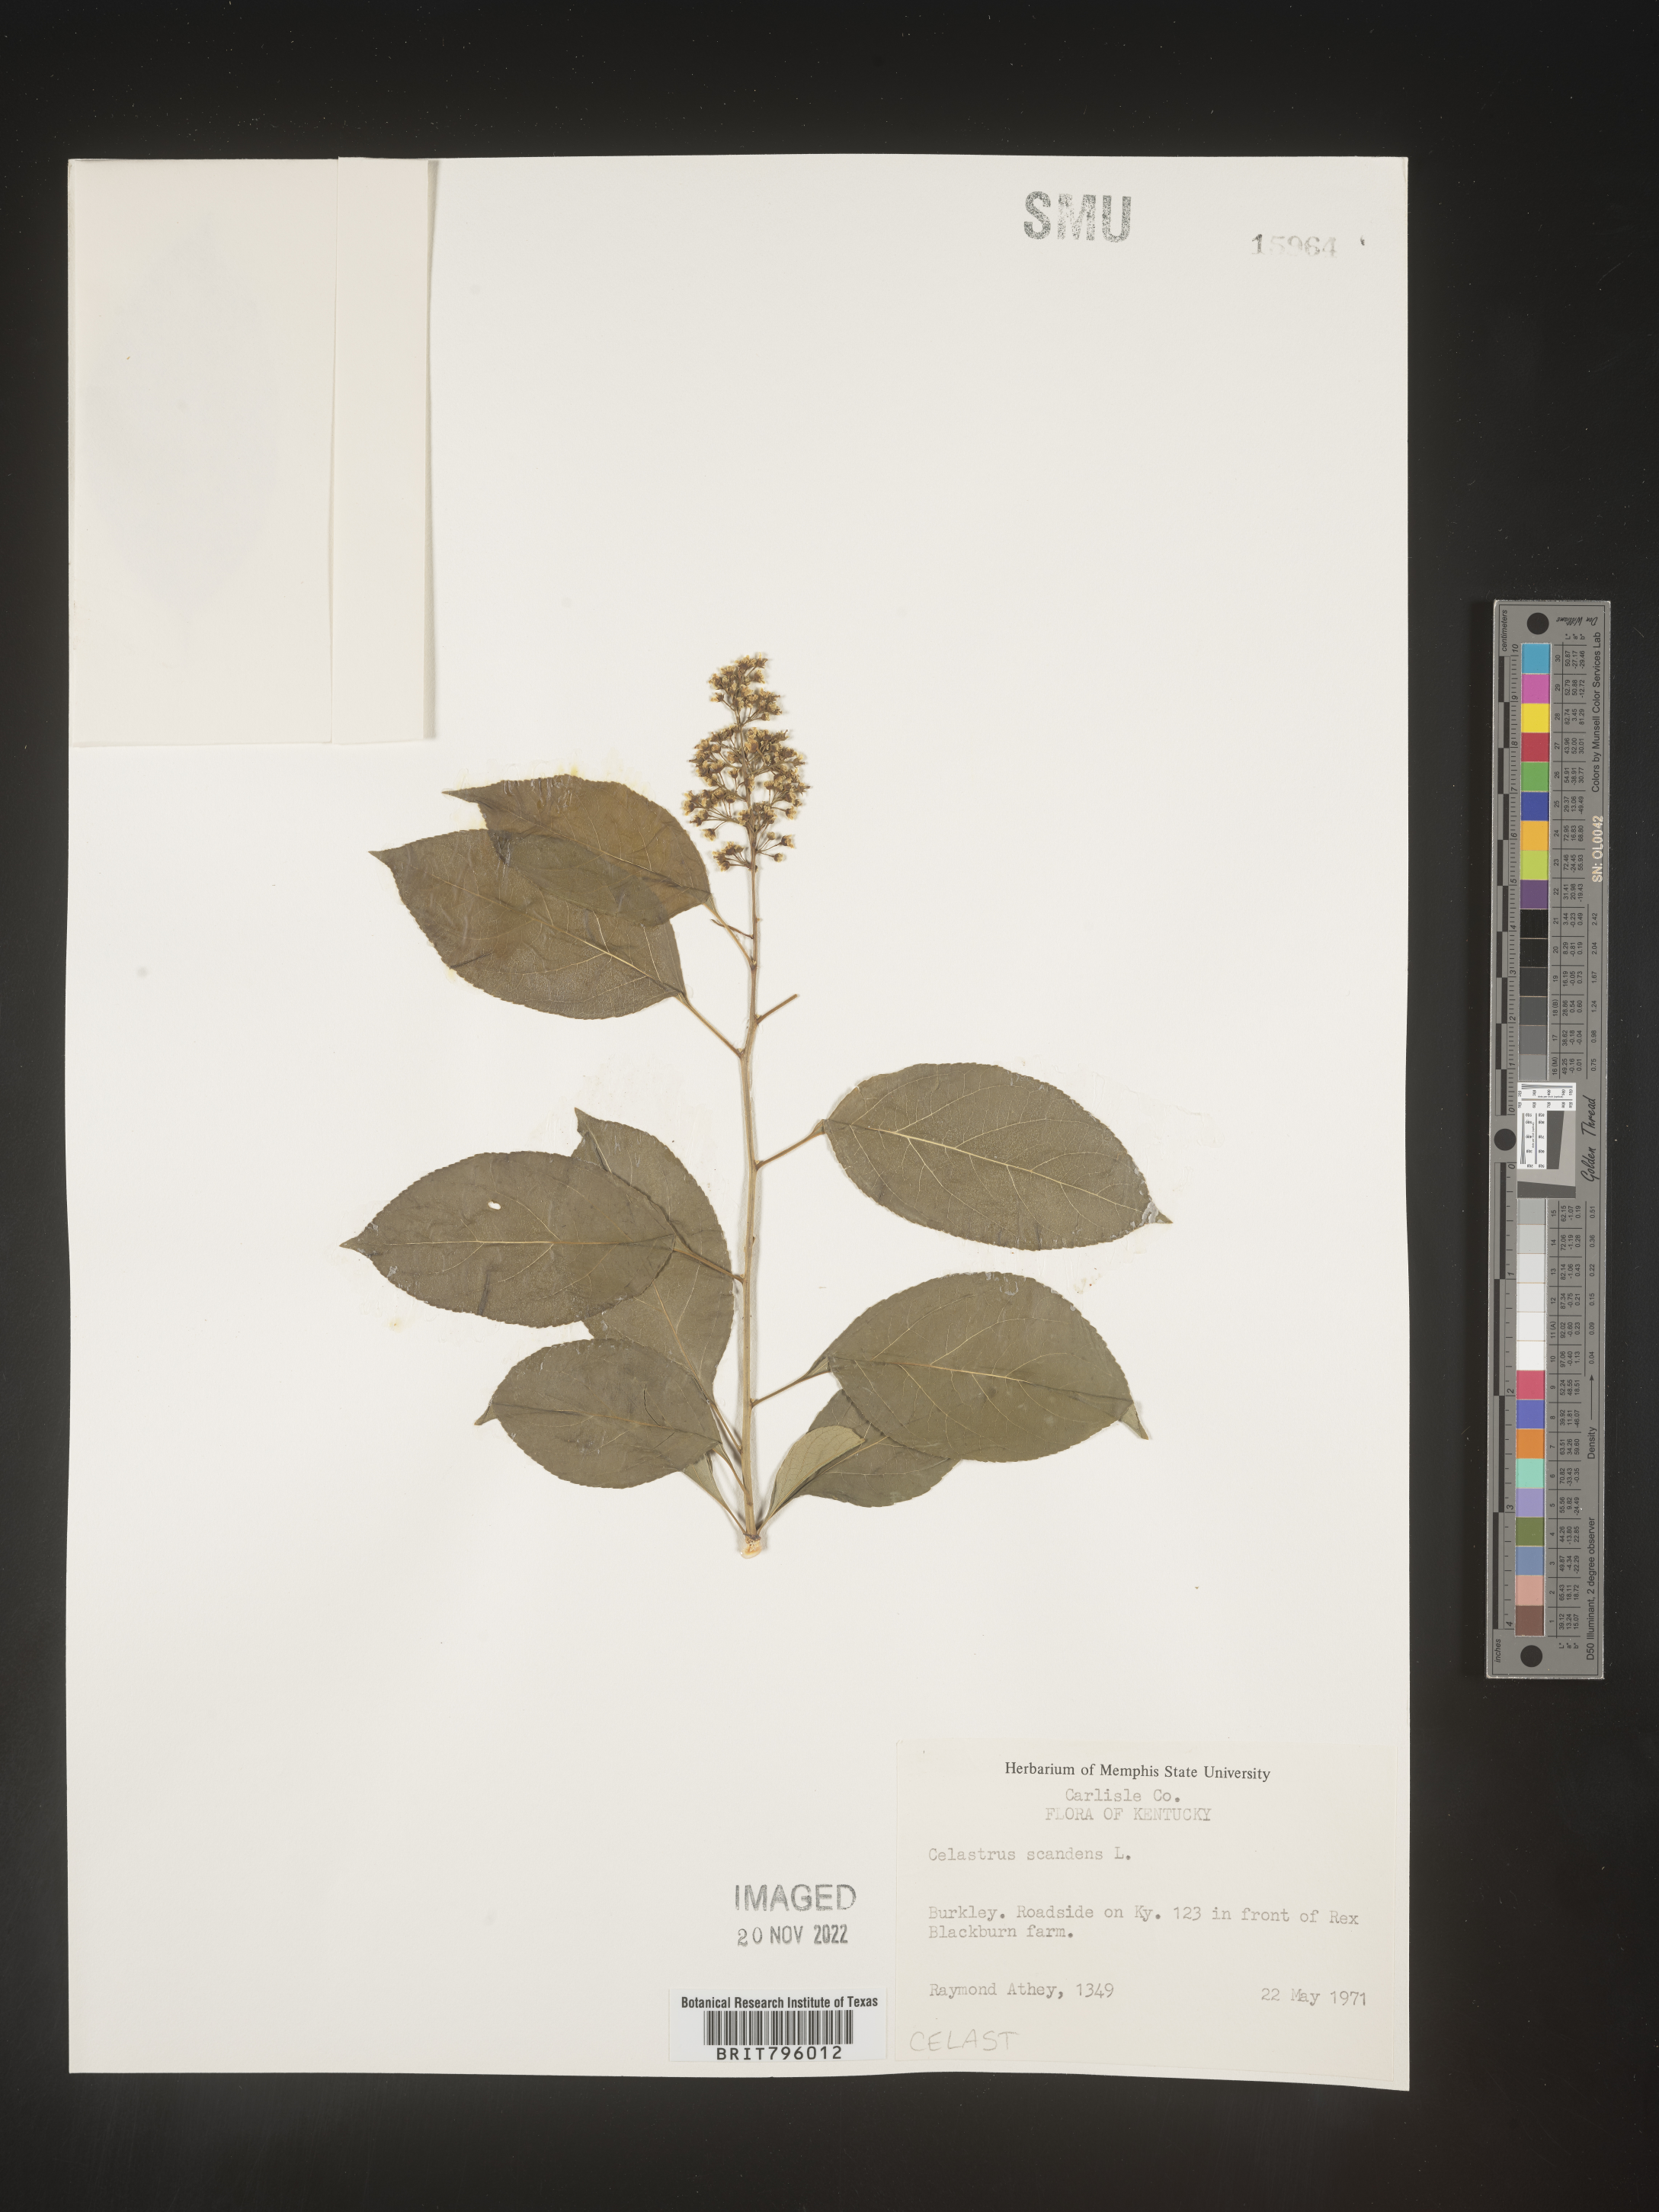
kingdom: Plantae
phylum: Tracheophyta
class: Magnoliopsida
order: Celastrales
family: Celastraceae
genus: Celastrus
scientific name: Celastrus scandens
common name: American bittersweet
